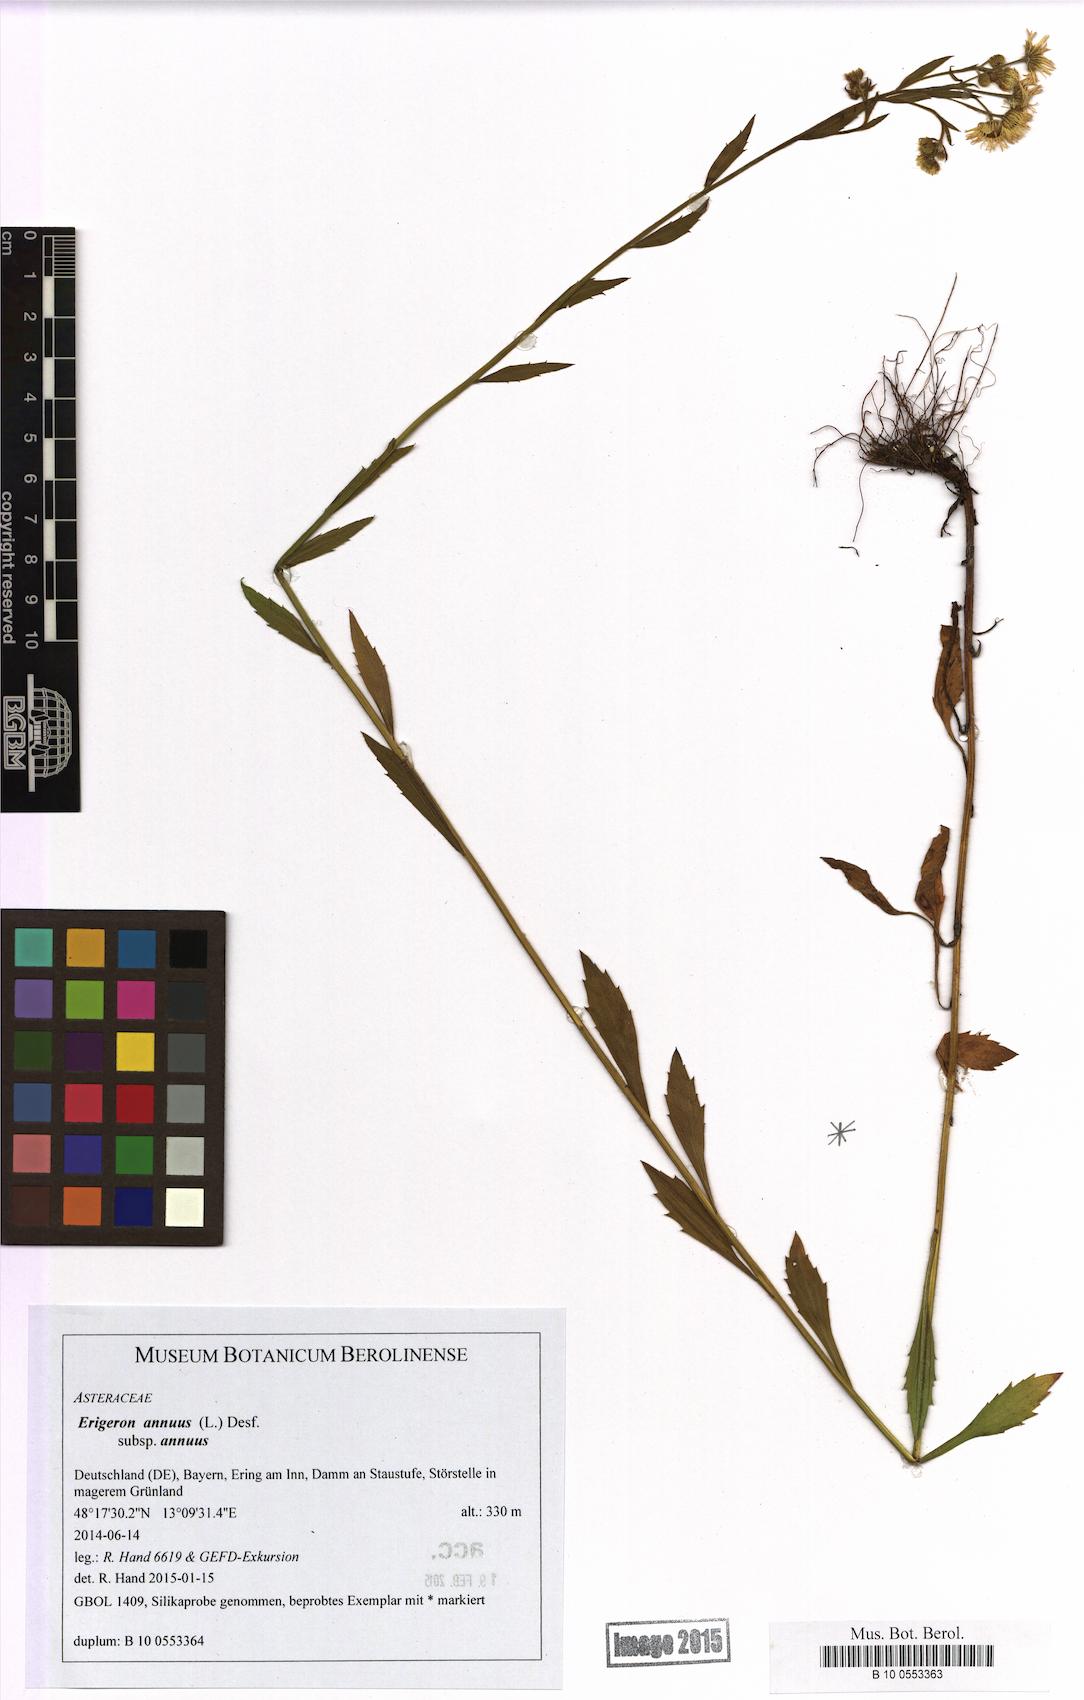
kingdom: Plantae
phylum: Tracheophyta
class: Magnoliopsida
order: Asterales
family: Asteraceae
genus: Erigeron
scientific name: Erigeron annuus
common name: Tall fleabane
